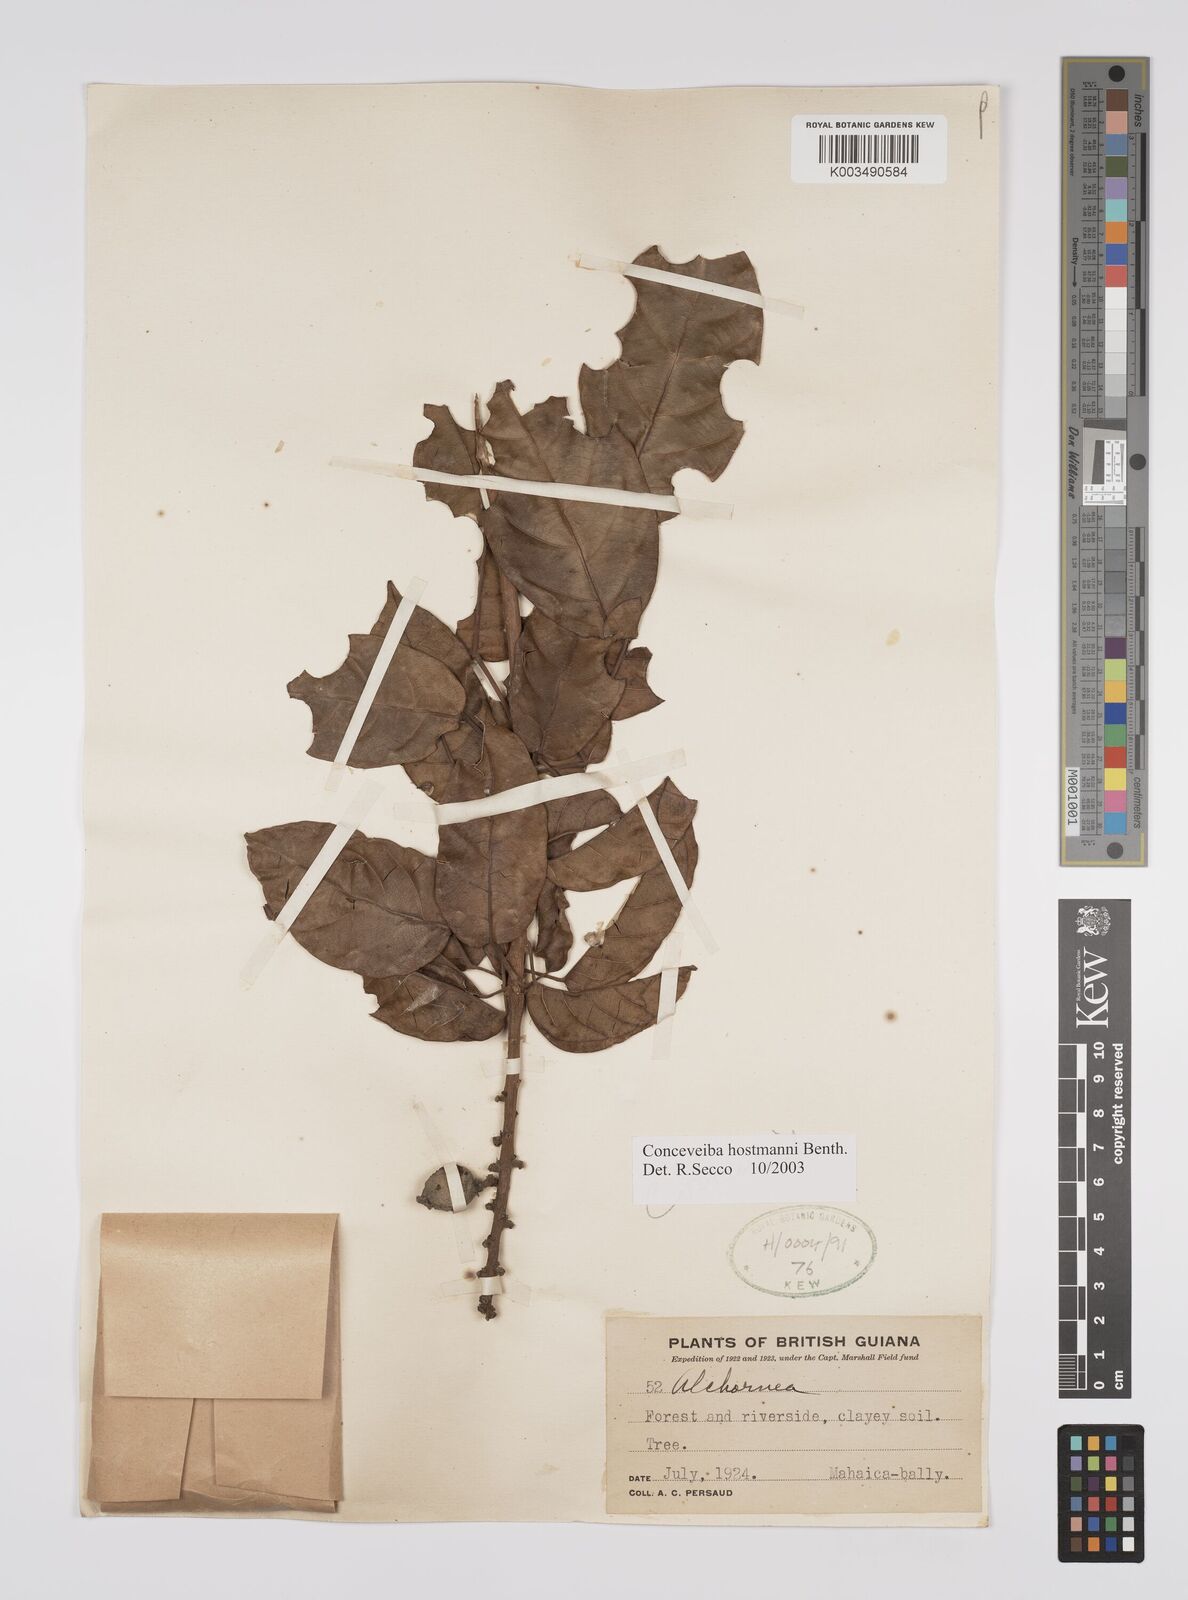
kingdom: Plantae
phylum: Tracheophyta
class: Magnoliopsida
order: Malpighiales
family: Euphorbiaceae
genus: Conceveiba
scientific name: Conceveiba hostmanii
